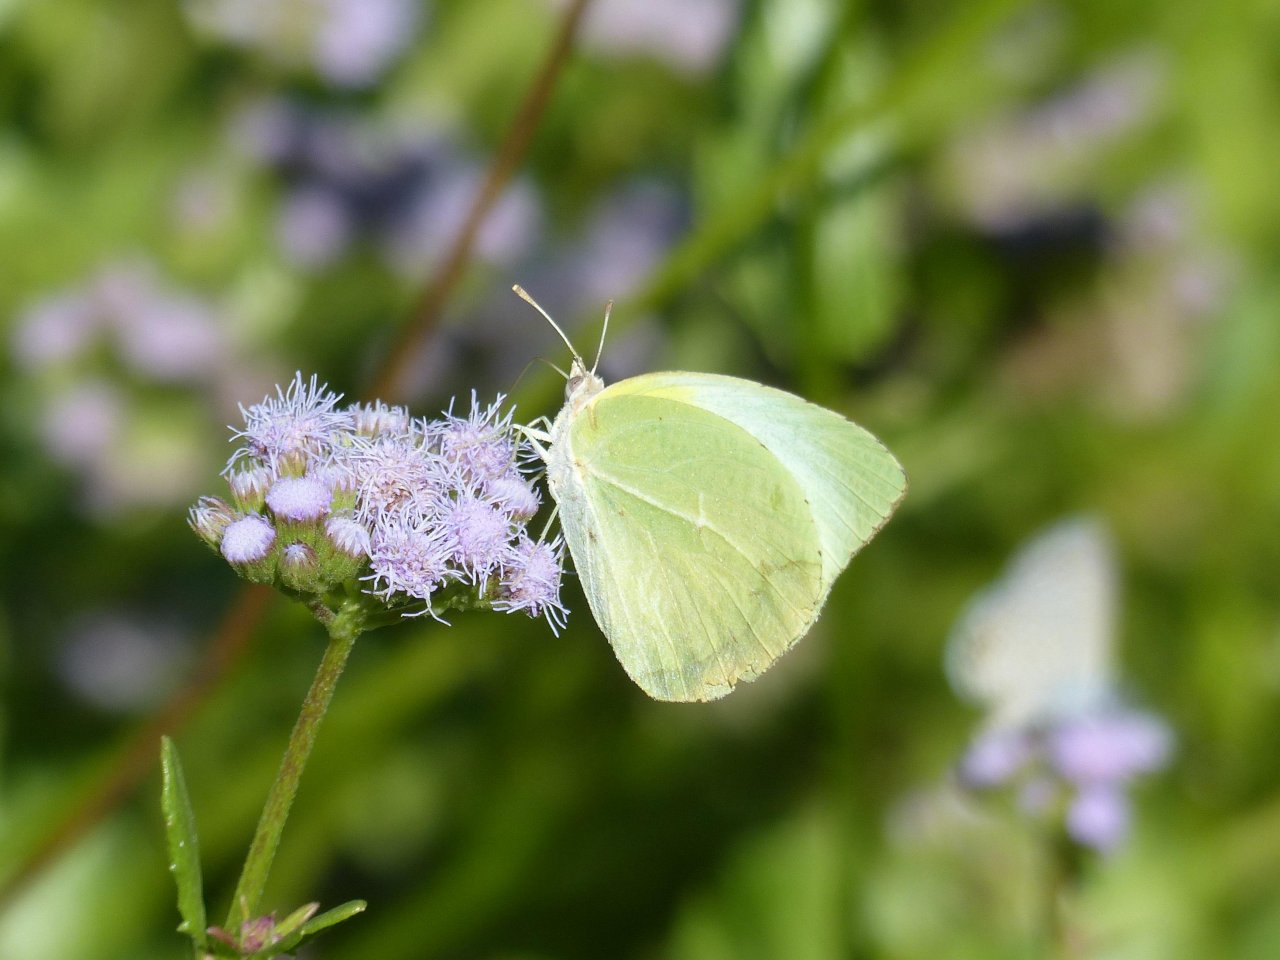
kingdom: Animalia
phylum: Arthropoda
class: Insecta
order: Lepidoptera
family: Pieridae
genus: Kricogonia
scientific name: Kricogonia lyside
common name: Lyside Sulphur
